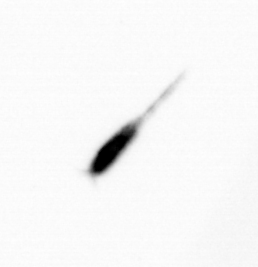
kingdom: Animalia
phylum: Arthropoda
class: Copepoda
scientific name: Copepoda
